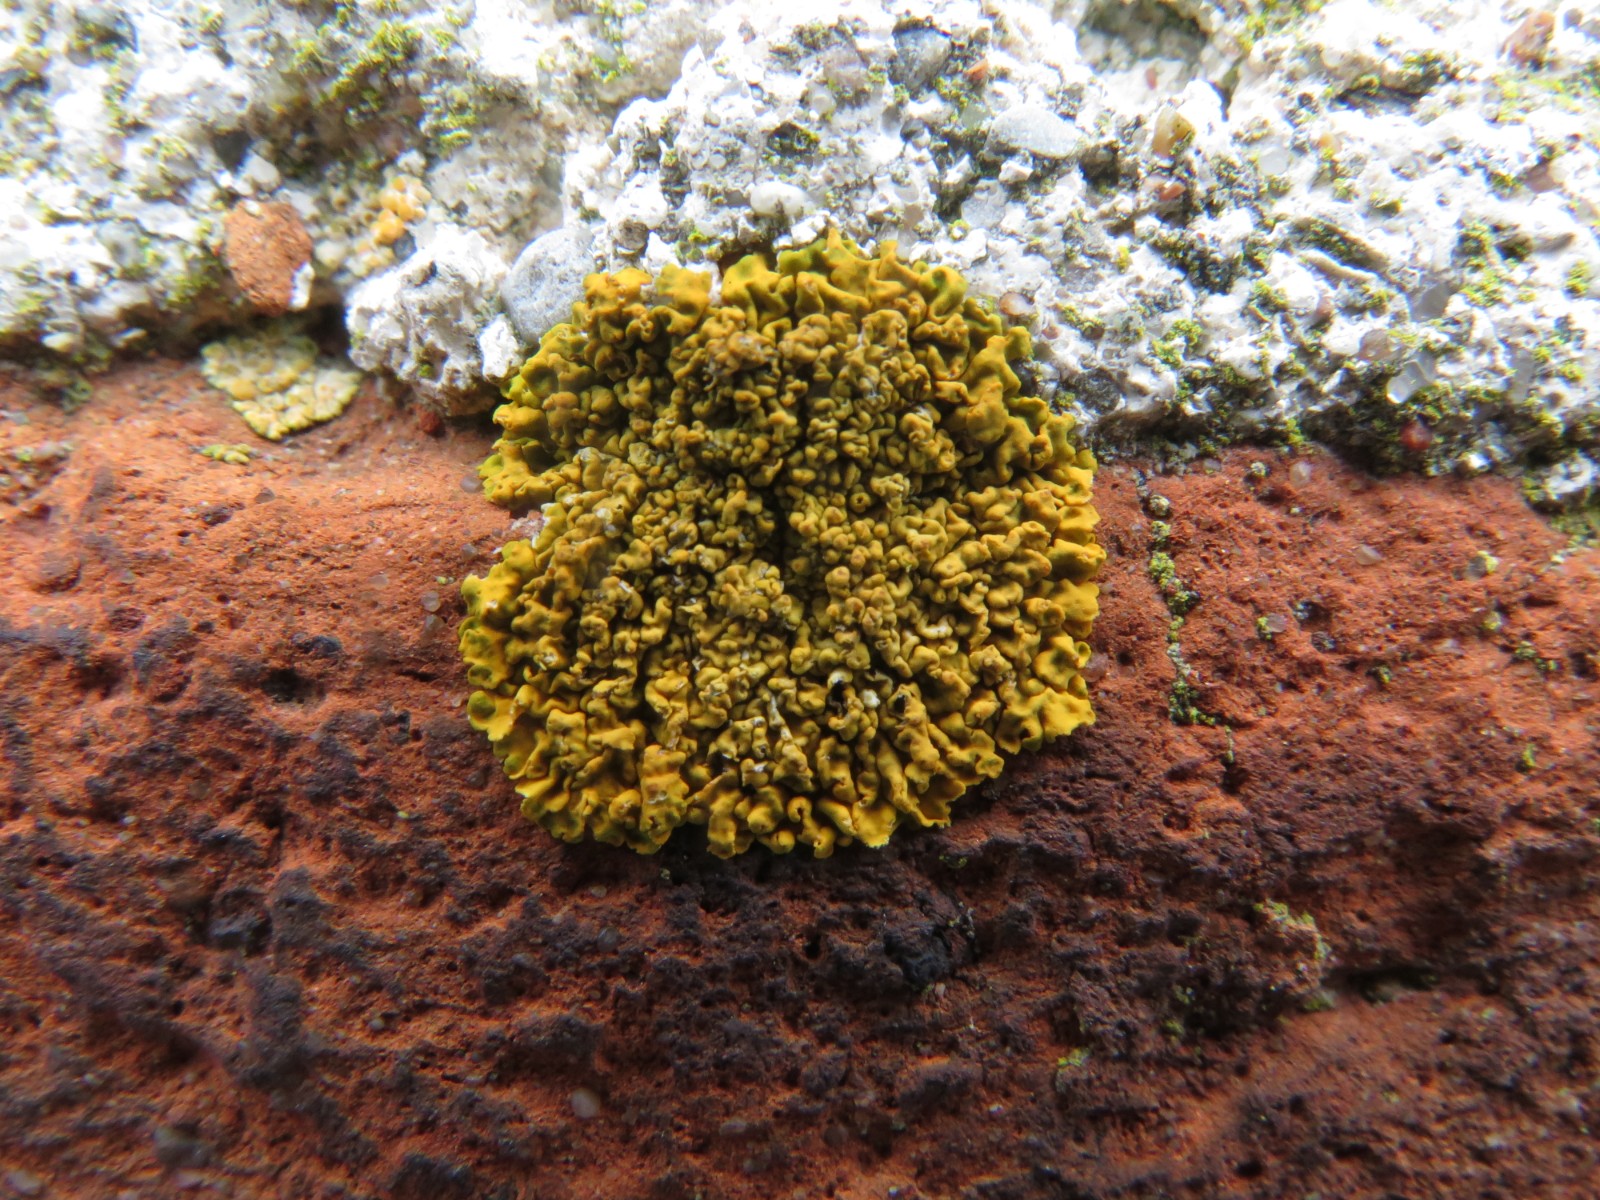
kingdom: Fungi
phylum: Ascomycota
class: Lecanoromycetes
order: Teloschistales
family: Teloschistaceae
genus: Xanthoria
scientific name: Xanthoria calcicola
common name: vortet væggelav
